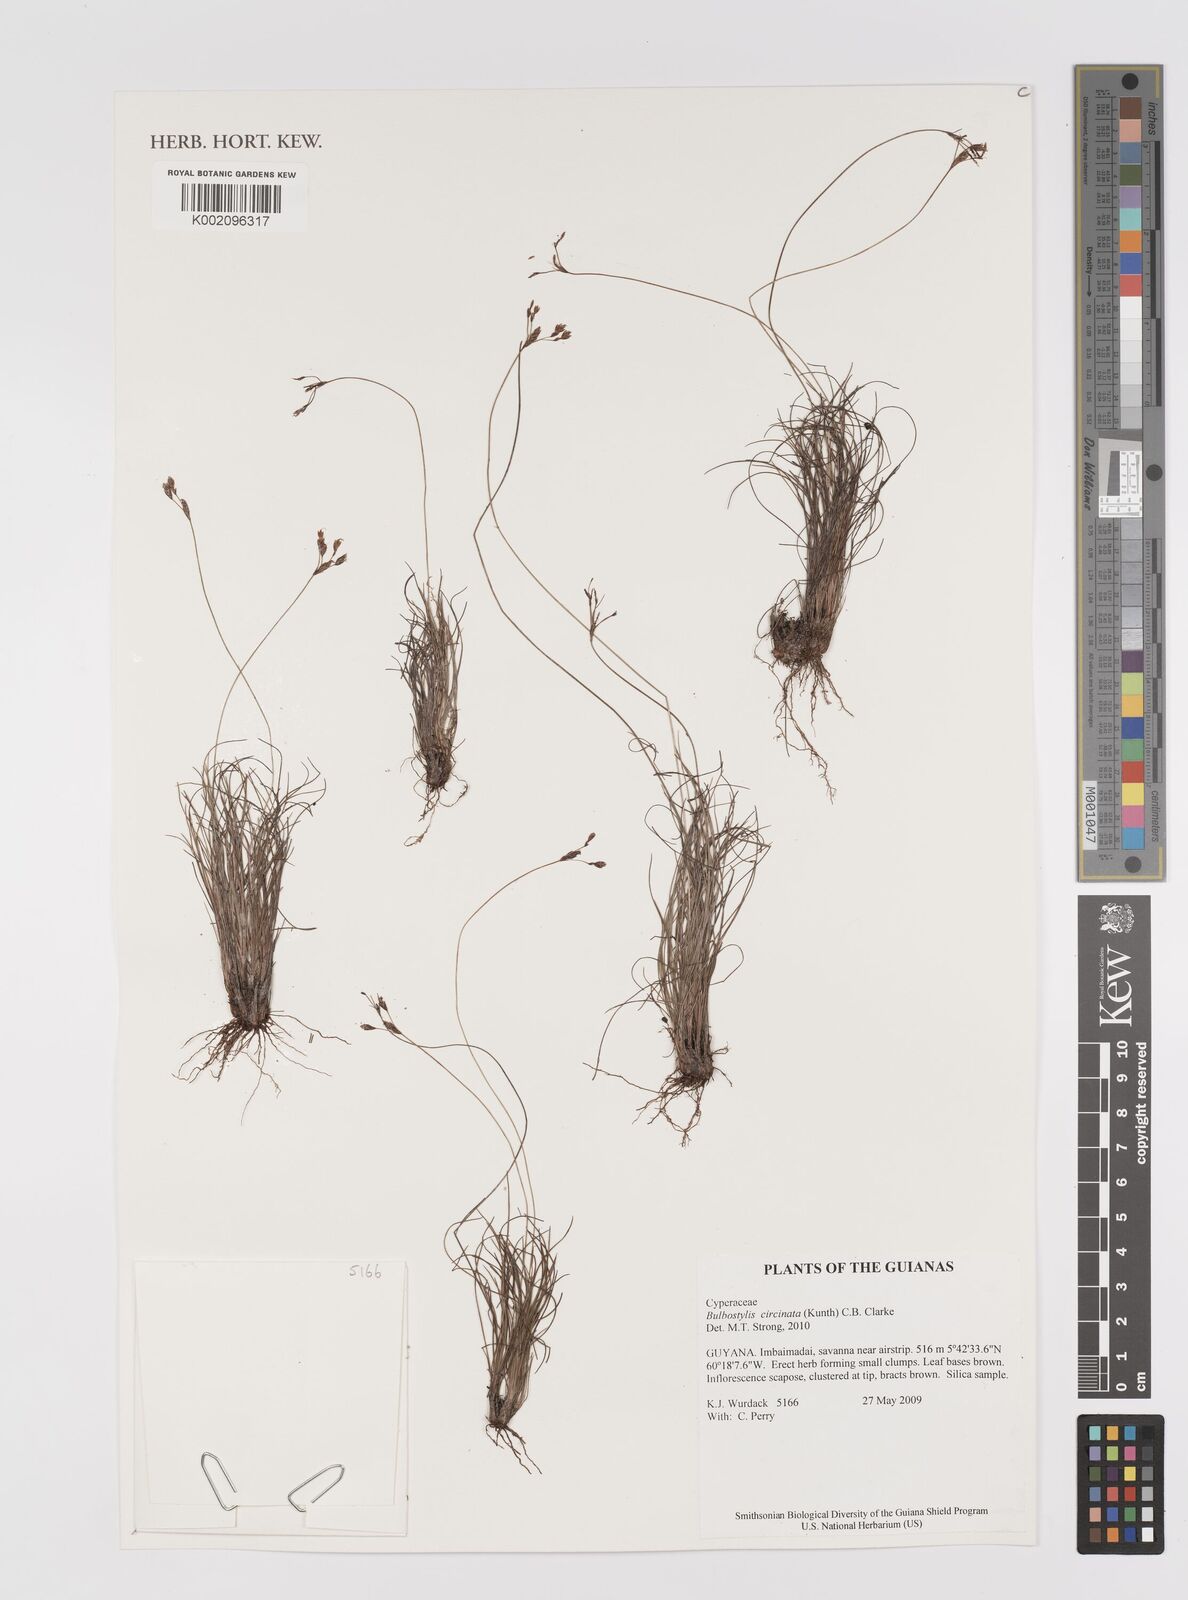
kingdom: Plantae
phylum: Tracheophyta
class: Liliopsida
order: Poales
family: Cyperaceae
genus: Bulbostylis
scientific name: Bulbostylis circinata
